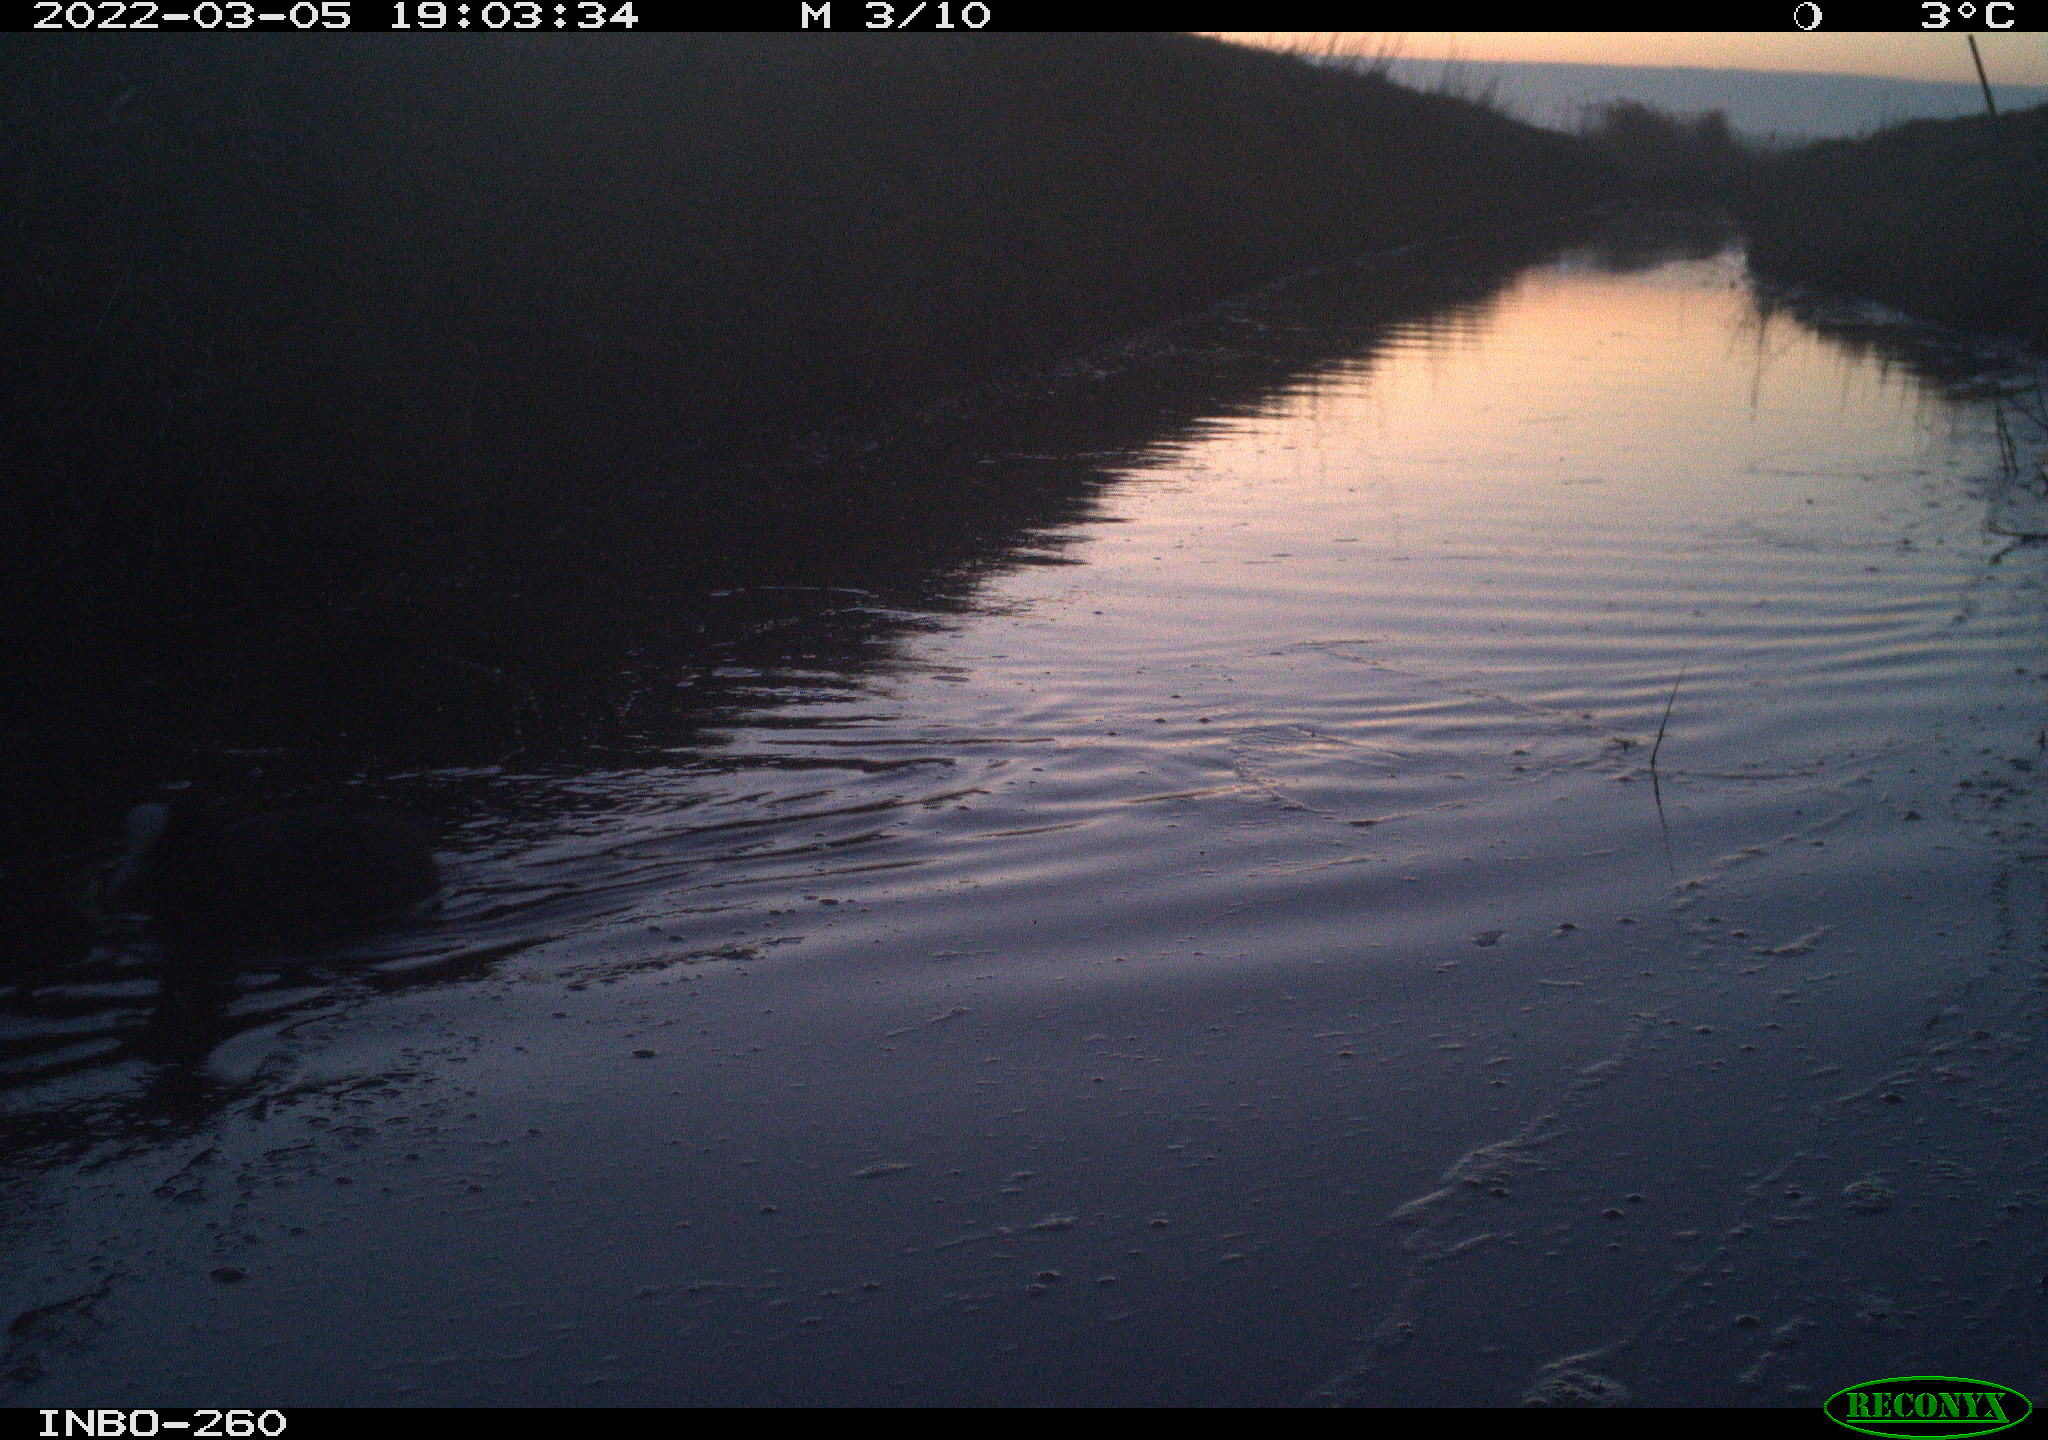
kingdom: Animalia
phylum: Chordata
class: Aves
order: Gruiformes
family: Rallidae
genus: Fulica
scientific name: Fulica atra
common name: Eurasian coot
